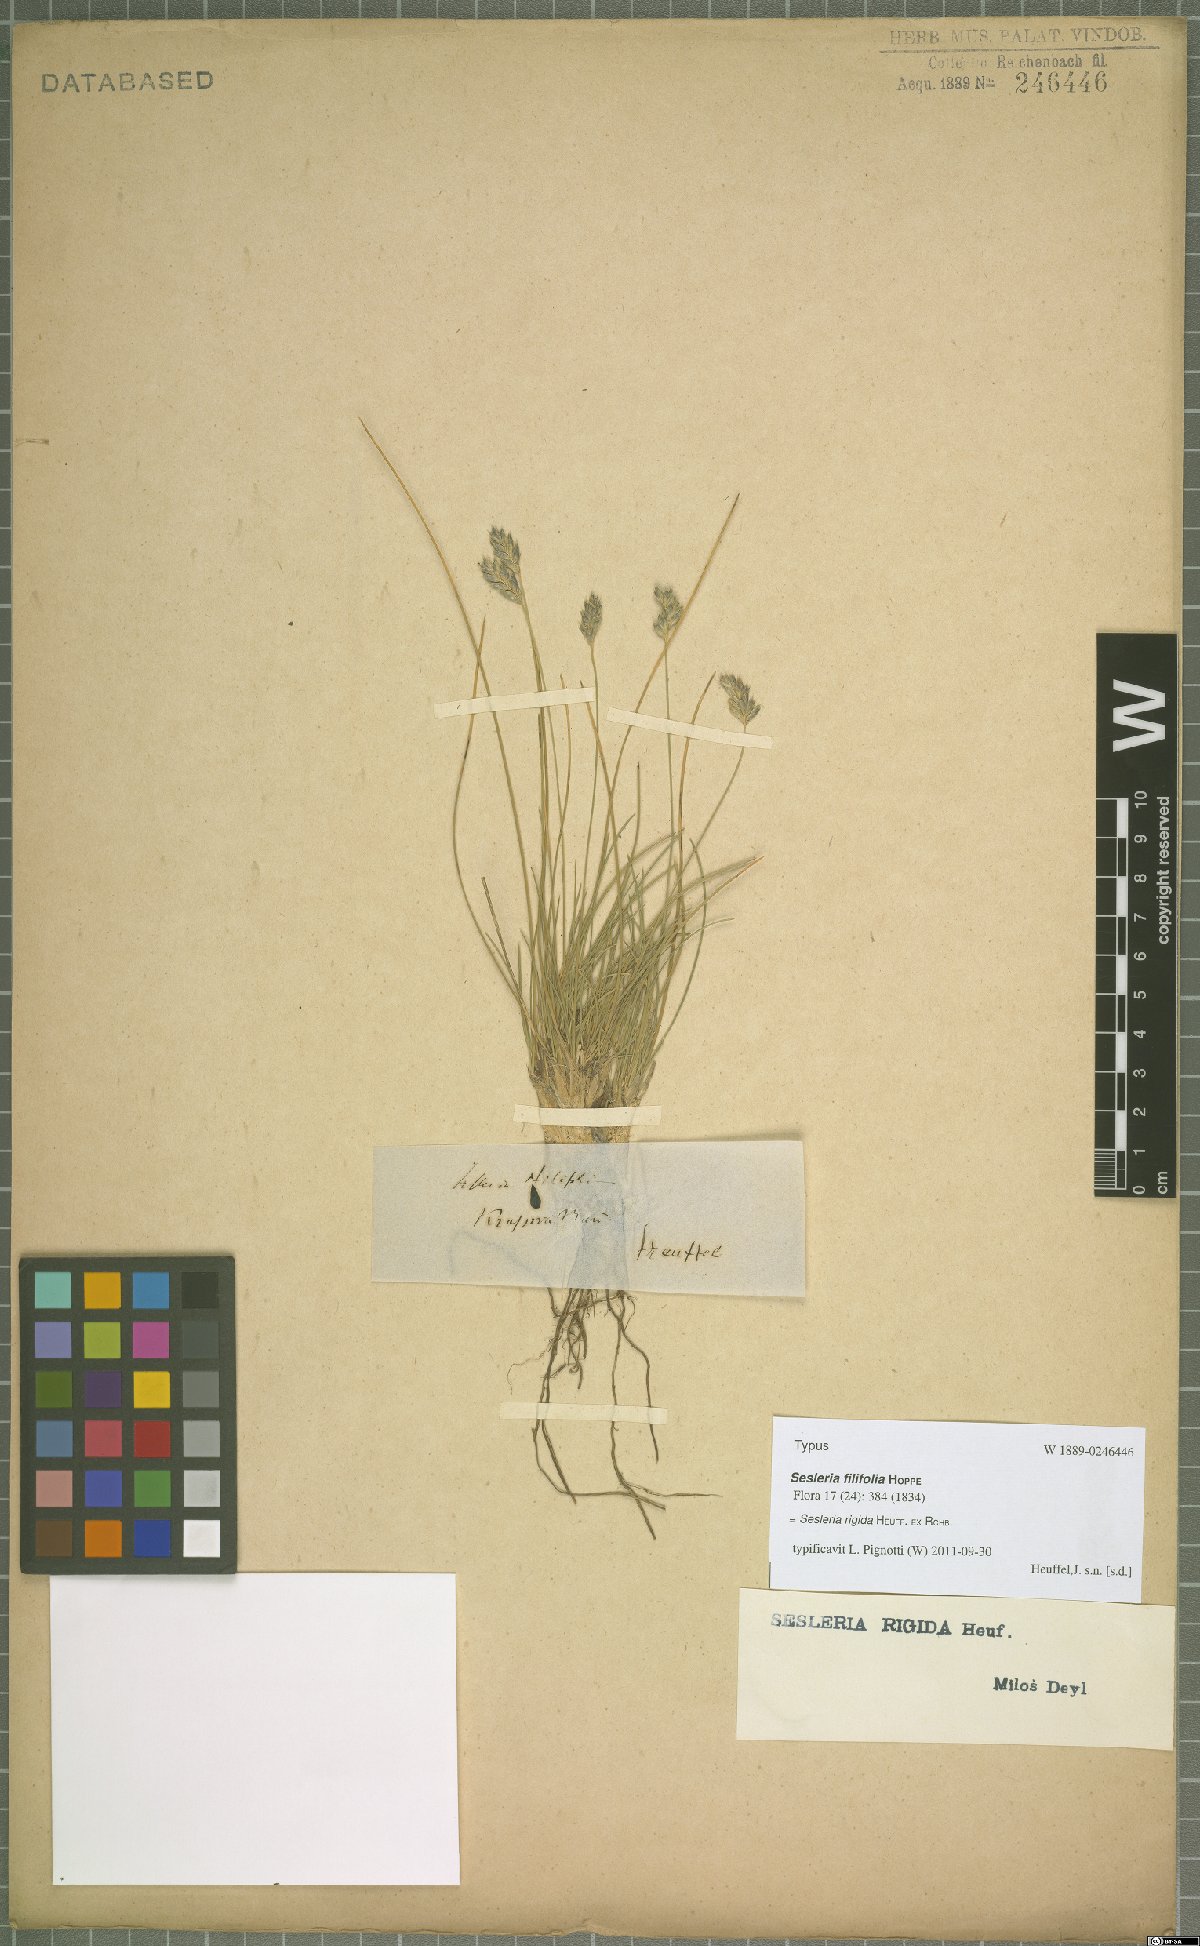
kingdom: Plantae
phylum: Tracheophyta
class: Liliopsida
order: Poales
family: Poaceae
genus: Sesleria
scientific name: Sesleria rigida
